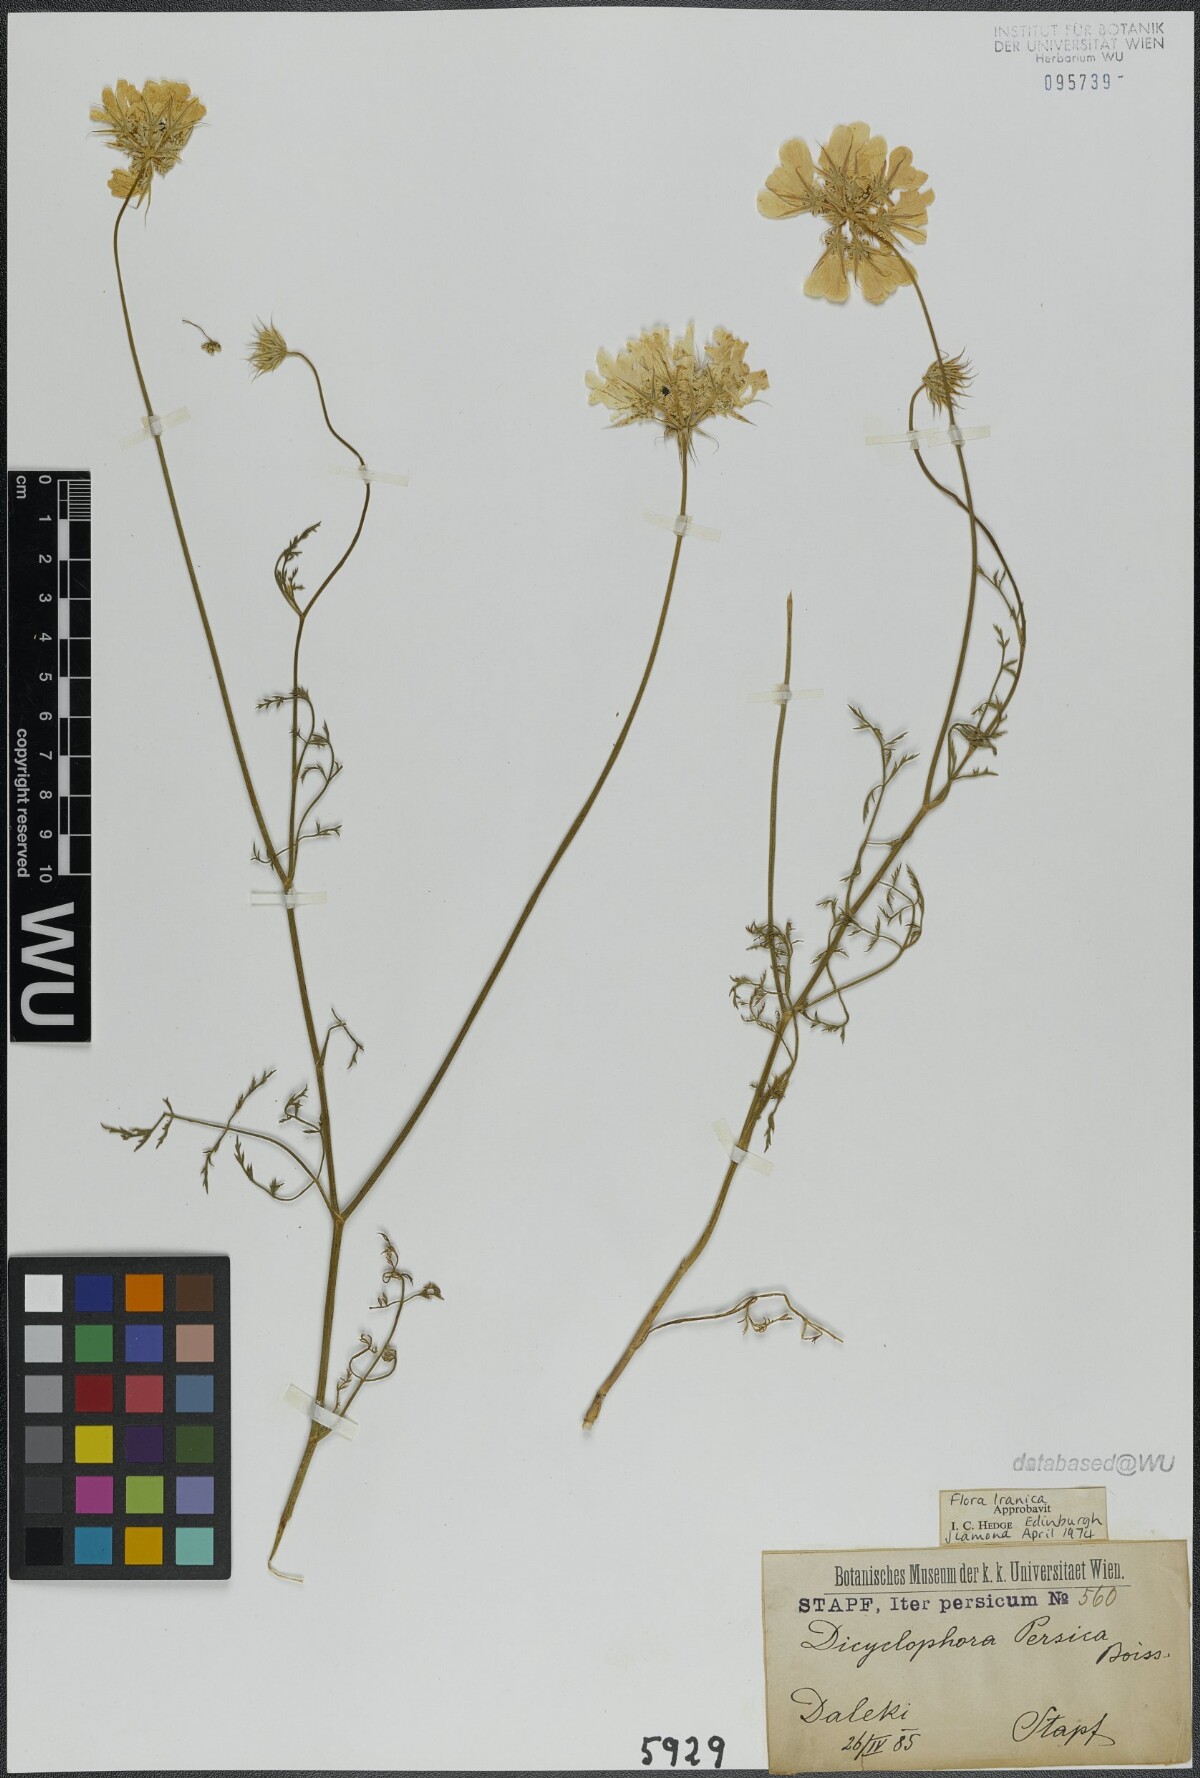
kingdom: Plantae
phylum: Tracheophyta
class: Magnoliopsida
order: Apiales
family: Apiaceae
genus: Dicyclophora
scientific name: Dicyclophora persica
